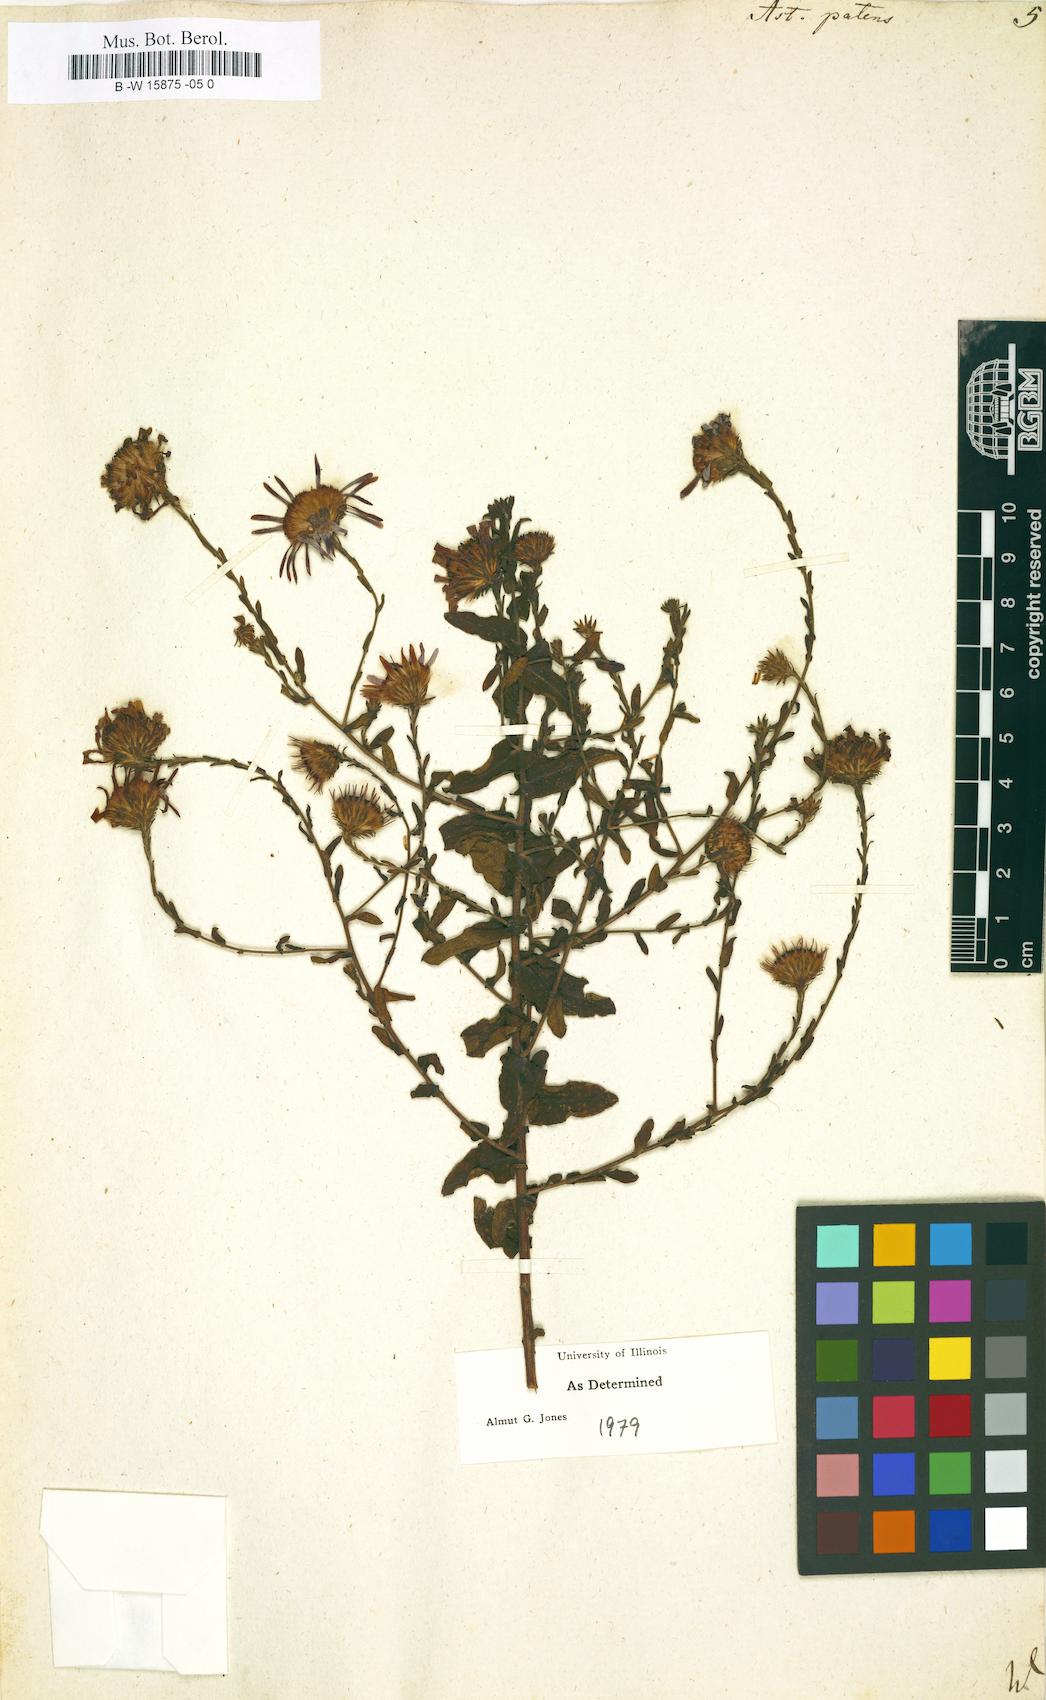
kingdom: Plantae
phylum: Tracheophyta
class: Magnoliopsida
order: Asterales
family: Asteraceae
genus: Aster
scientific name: Aster patens
